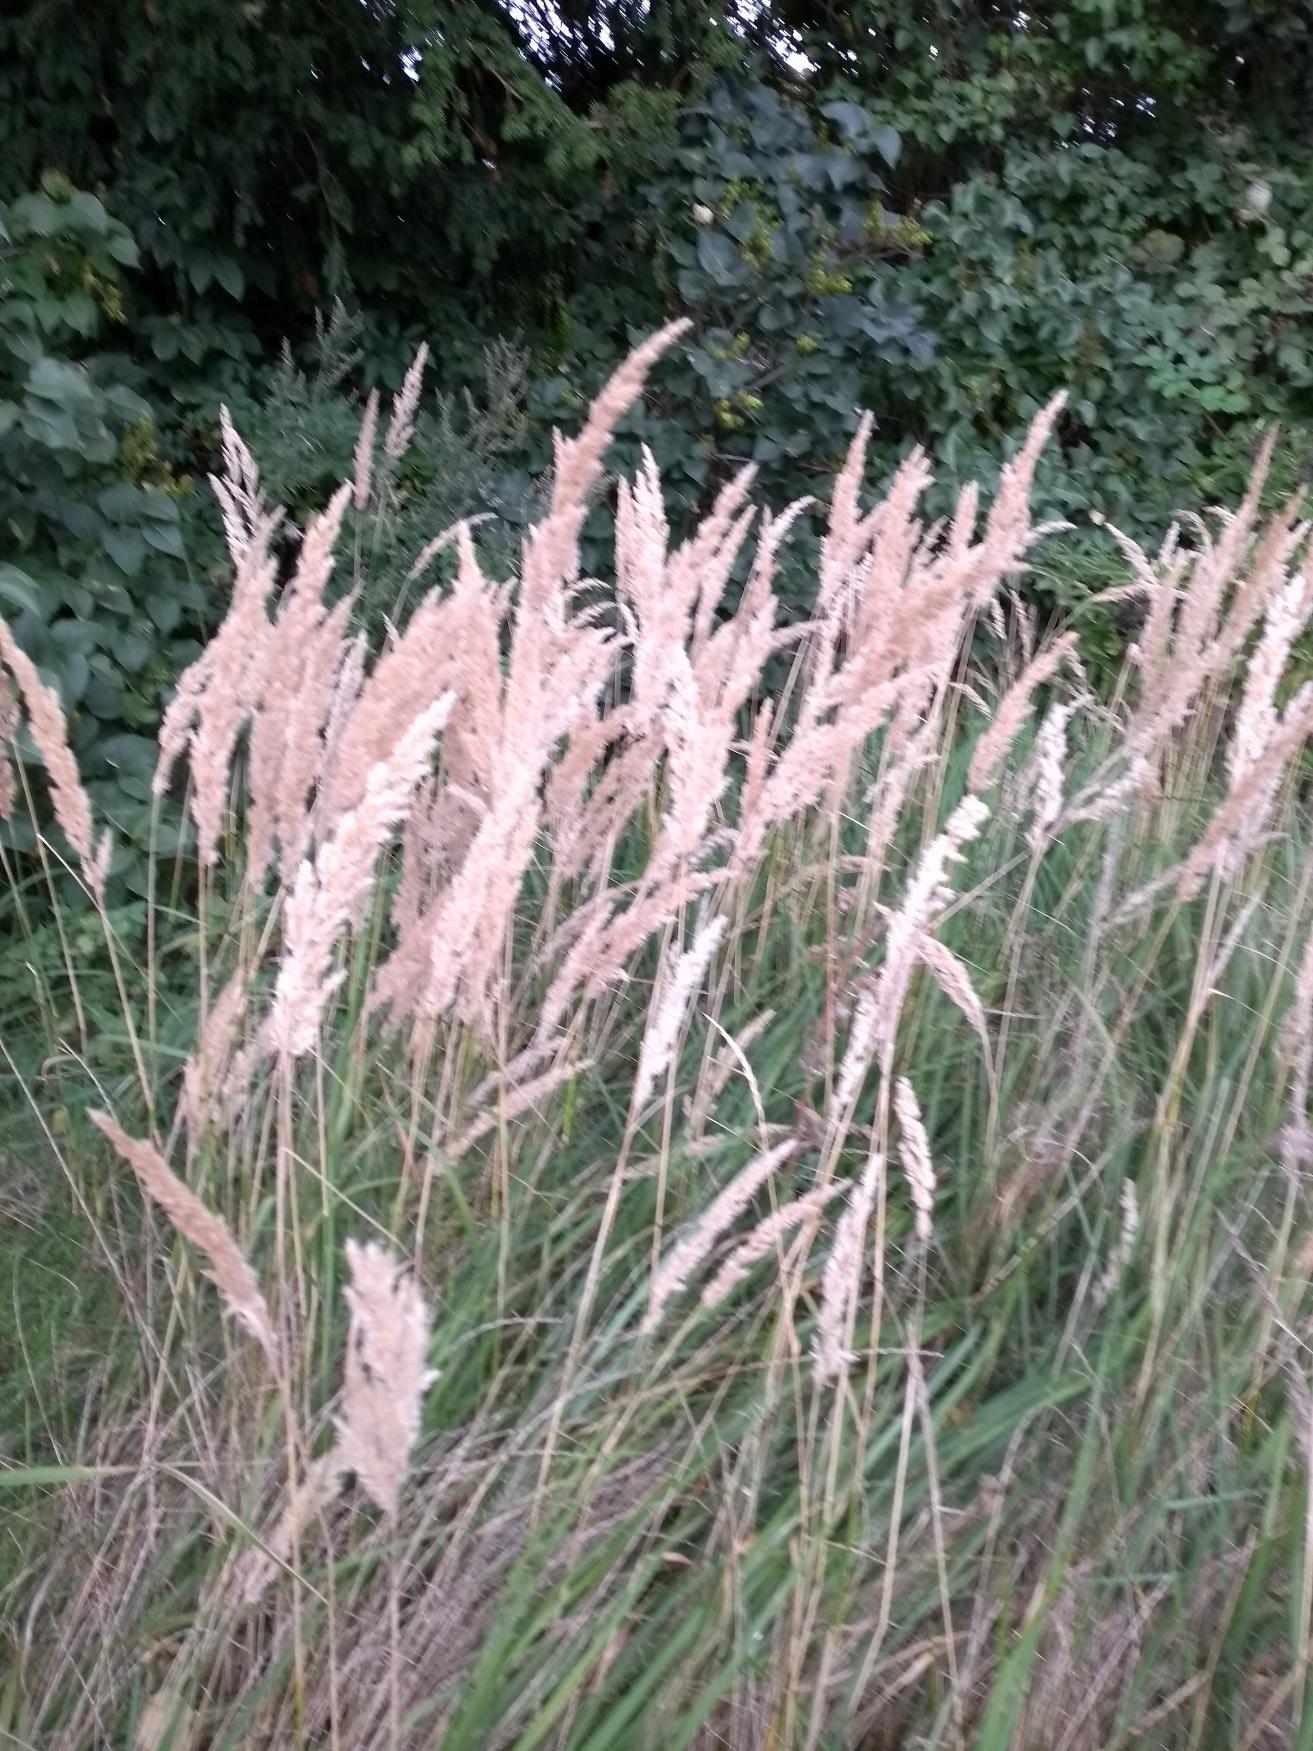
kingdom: Plantae
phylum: Tracheophyta
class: Liliopsida
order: Poales
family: Poaceae
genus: Calamagrostis
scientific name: Calamagrostis epigejos
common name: Bjerg-rørhvene
